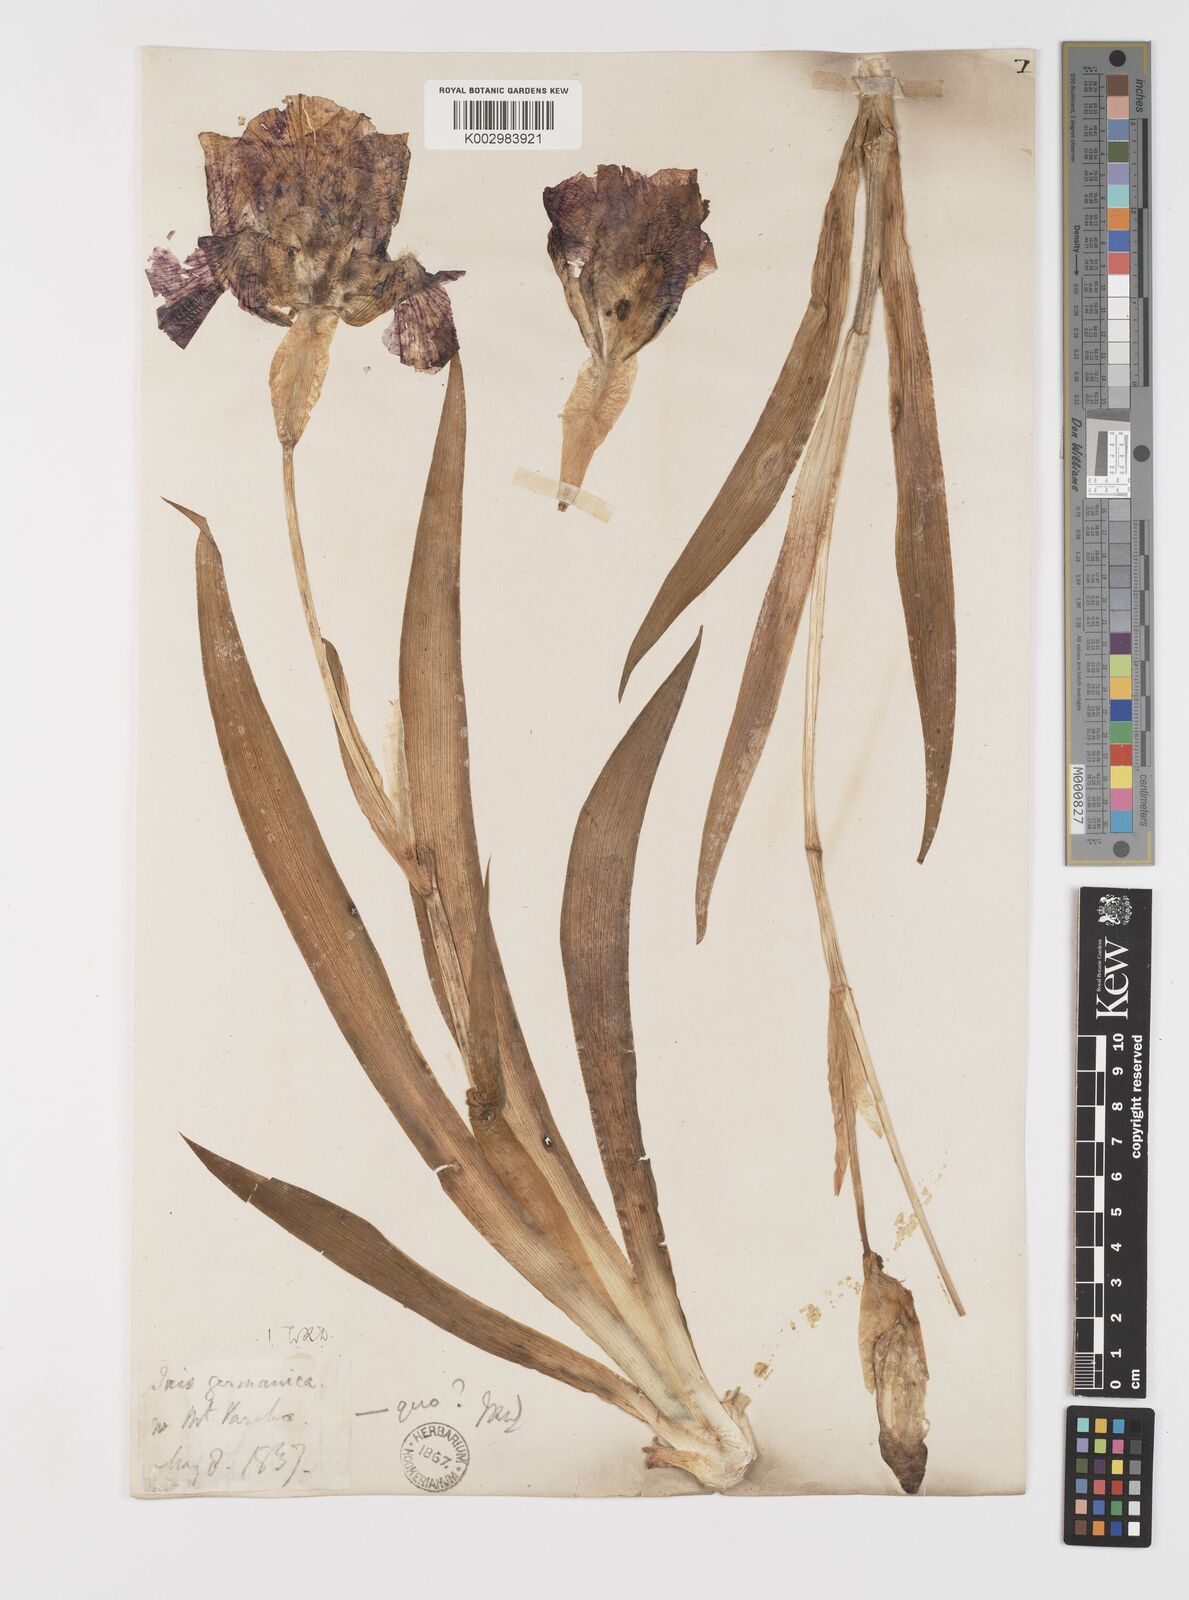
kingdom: Plantae
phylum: Tracheophyta
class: Liliopsida
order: Asparagales
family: Iridaceae
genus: Iris
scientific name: Iris germanica
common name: German iris
